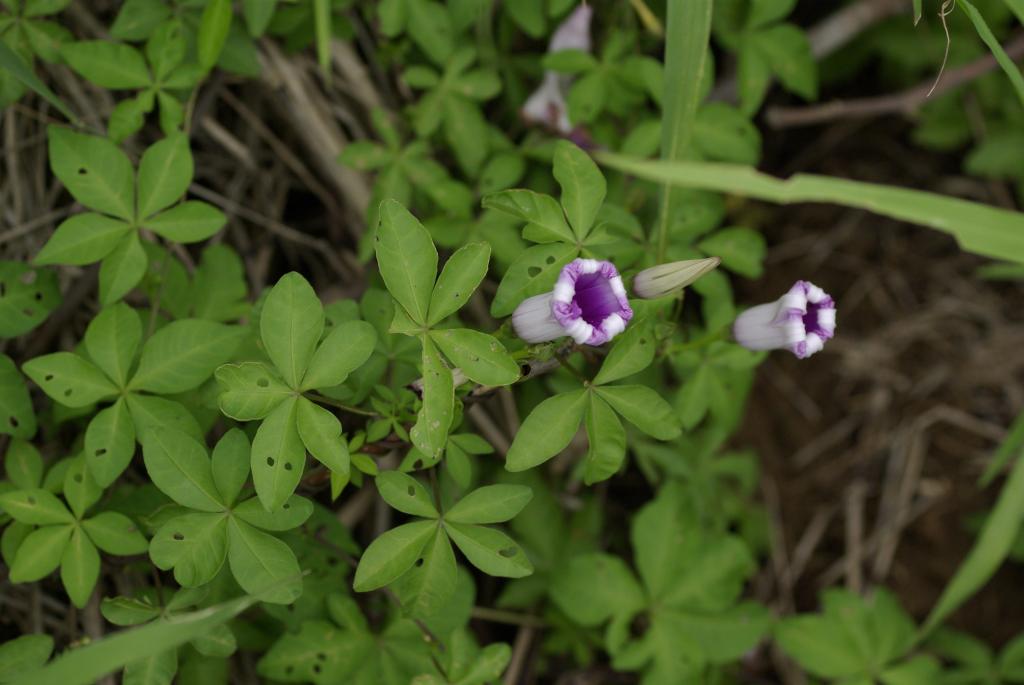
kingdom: Plantae
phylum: Tracheophyta
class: Magnoliopsida
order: Solanales
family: Convolvulaceae
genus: Ipomoea
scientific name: Ipomoea cairica
